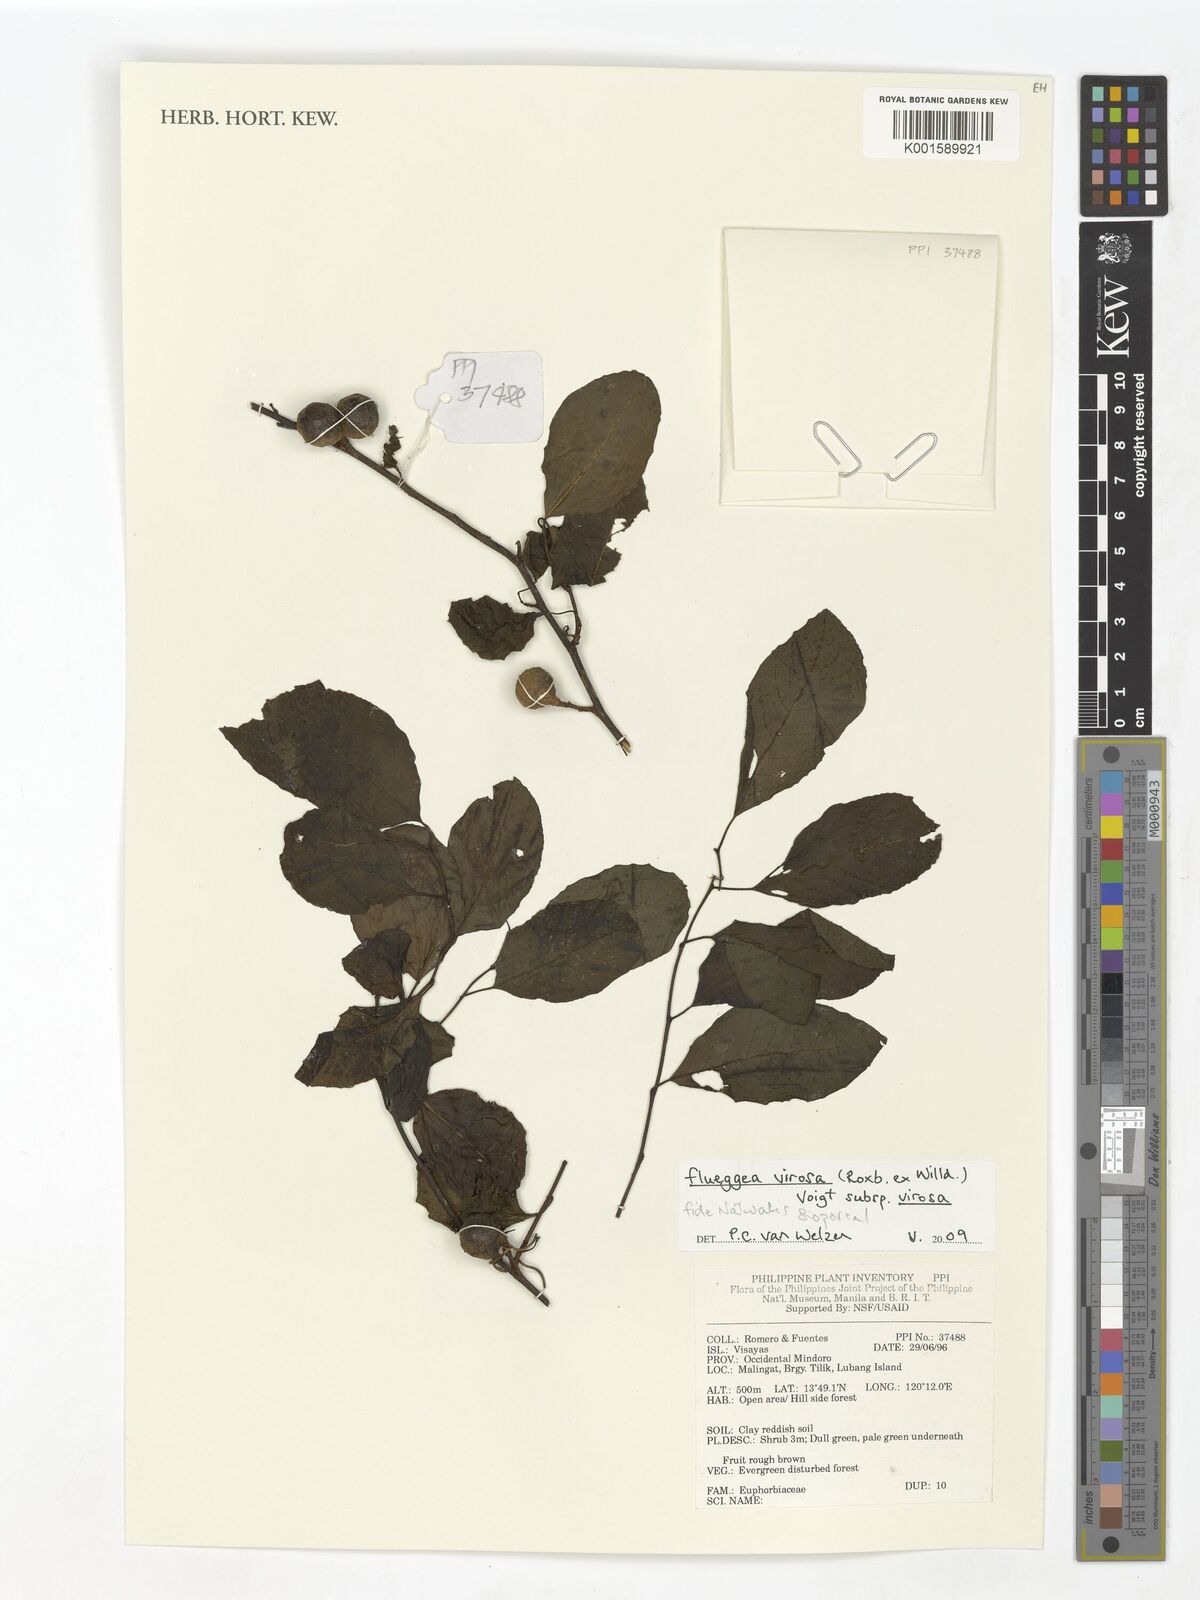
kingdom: Plantae
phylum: Tracheophyta
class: Magnoliopsida
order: Malpighiales
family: Phyllanthaceae
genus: Flueggea
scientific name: Flueggea virosa
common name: Common bushweed
